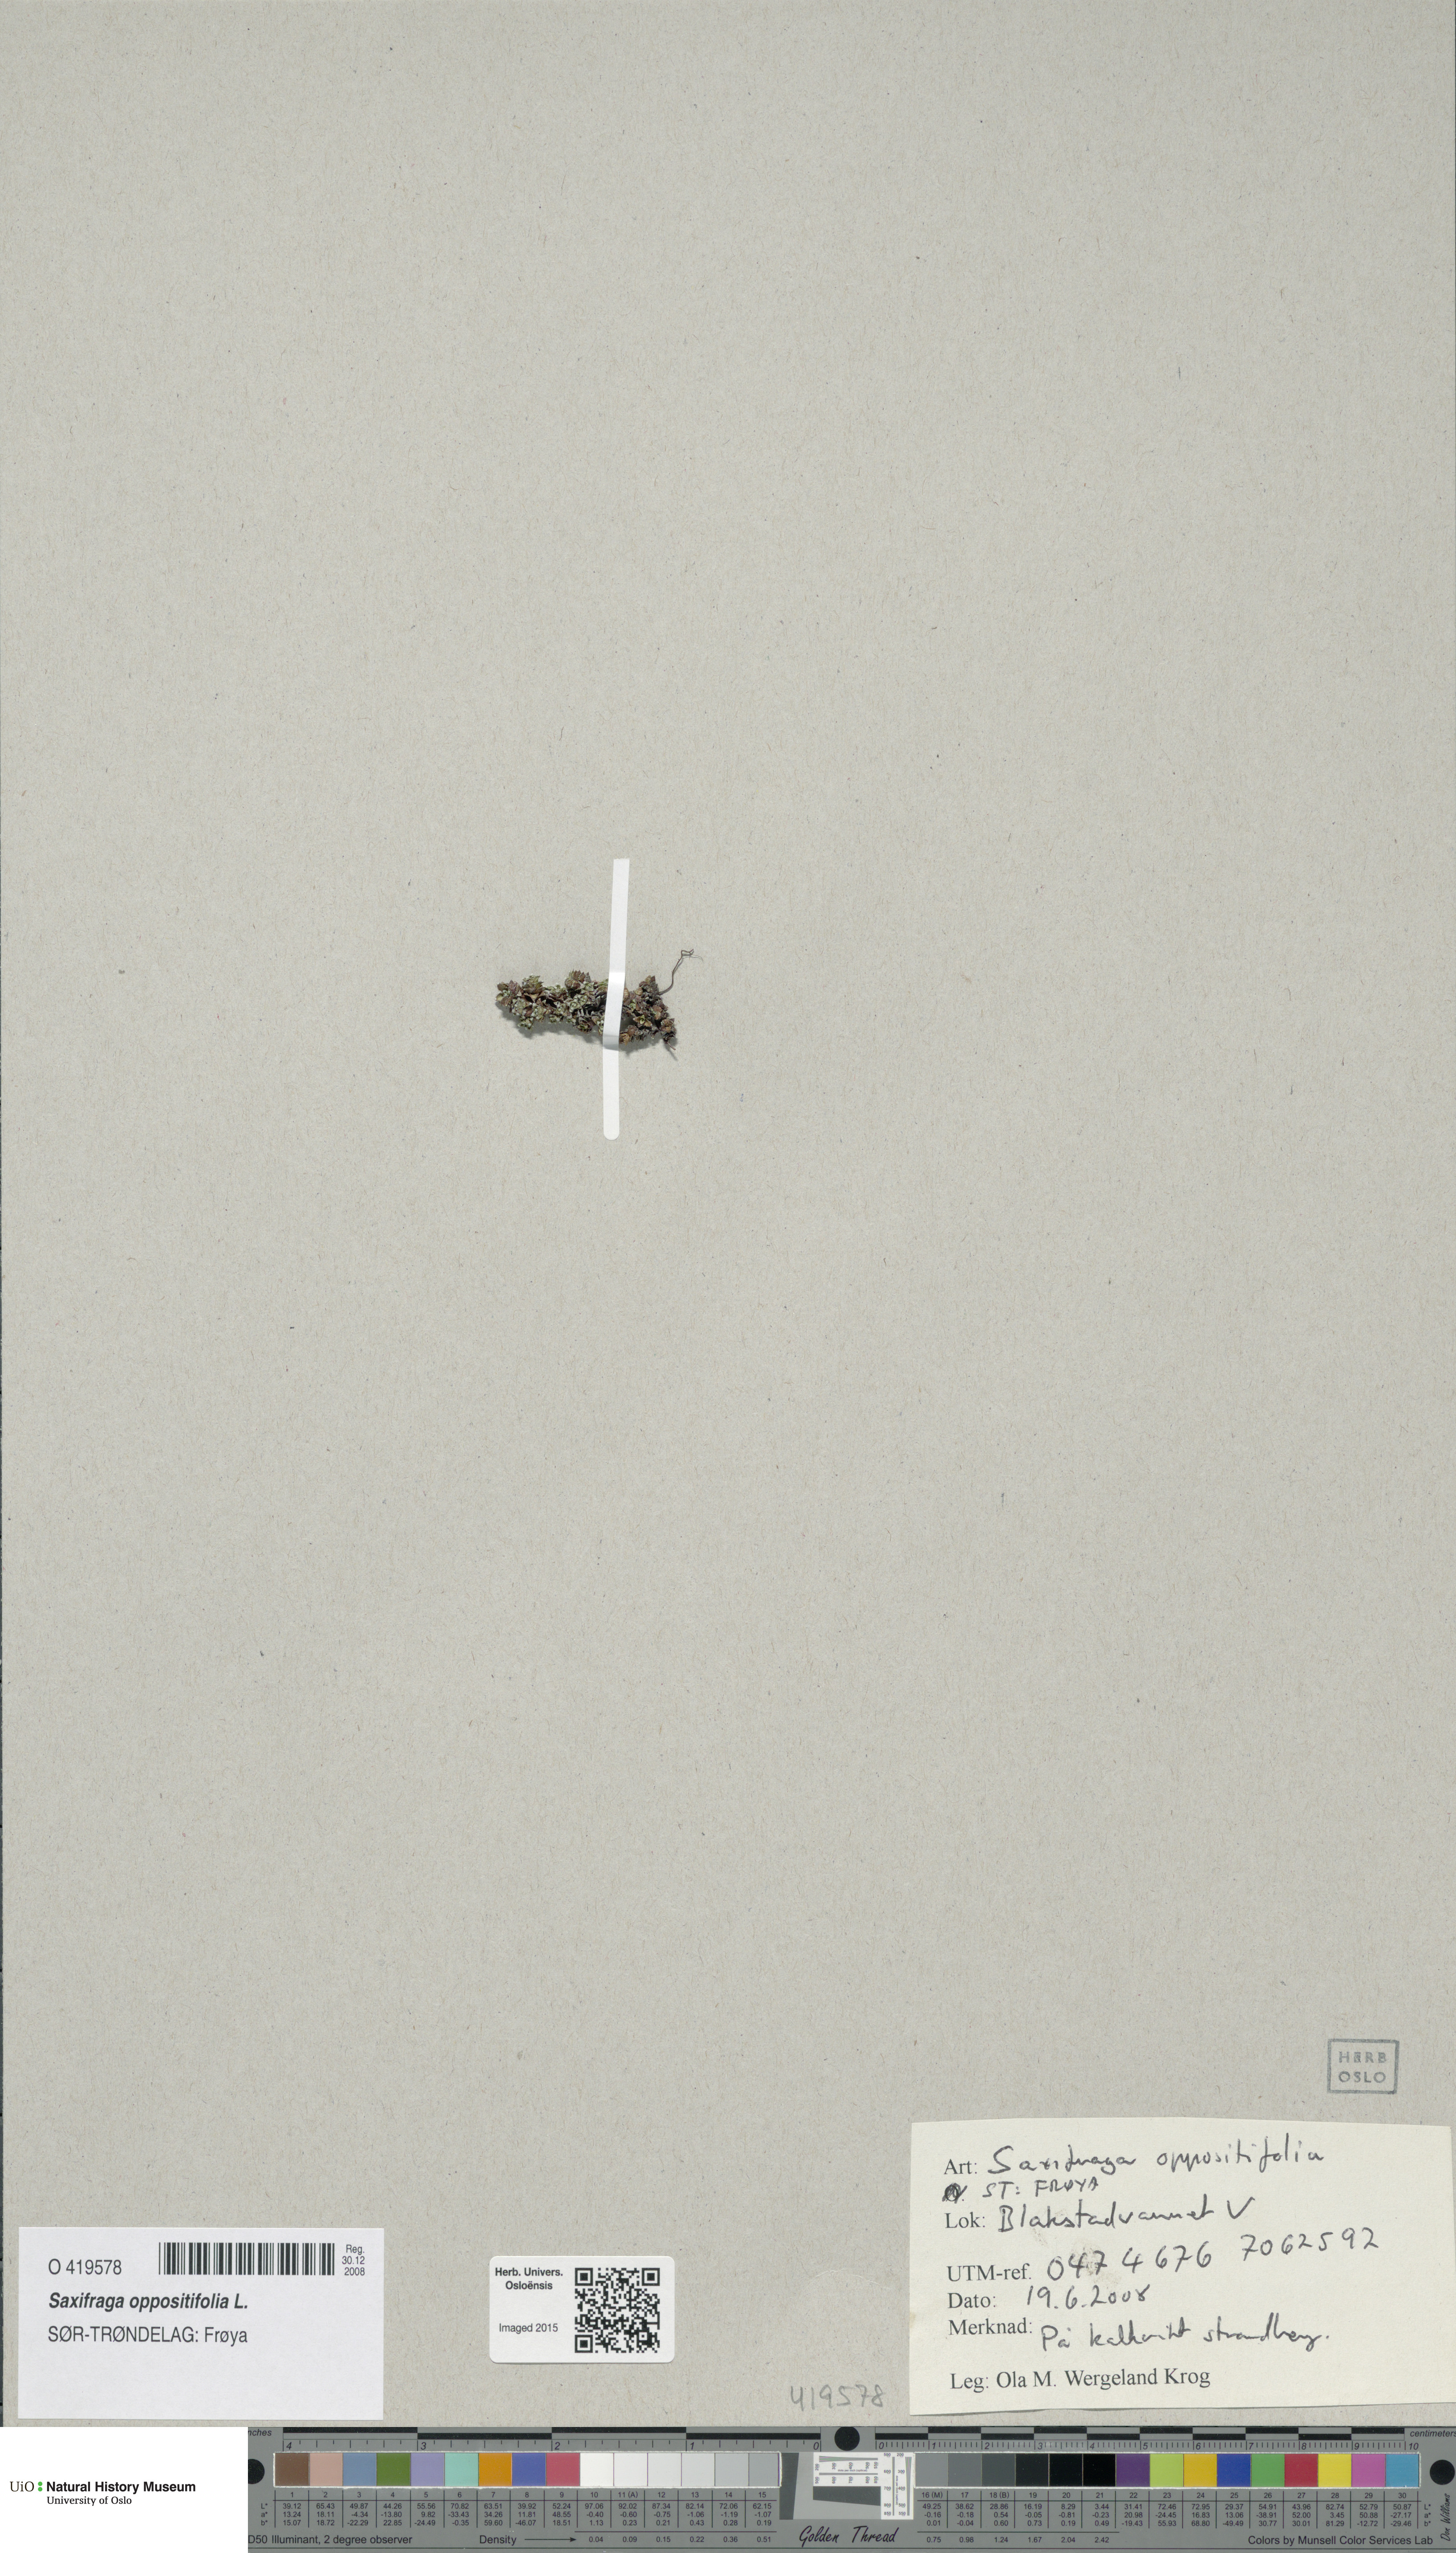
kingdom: Plantae
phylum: Tracheophyta
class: Magnoliopsida
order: Saxifragales
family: Saxifragaceae
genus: Saxifraga
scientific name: Saxifraga oppositifolia
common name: Purple saxifrage
